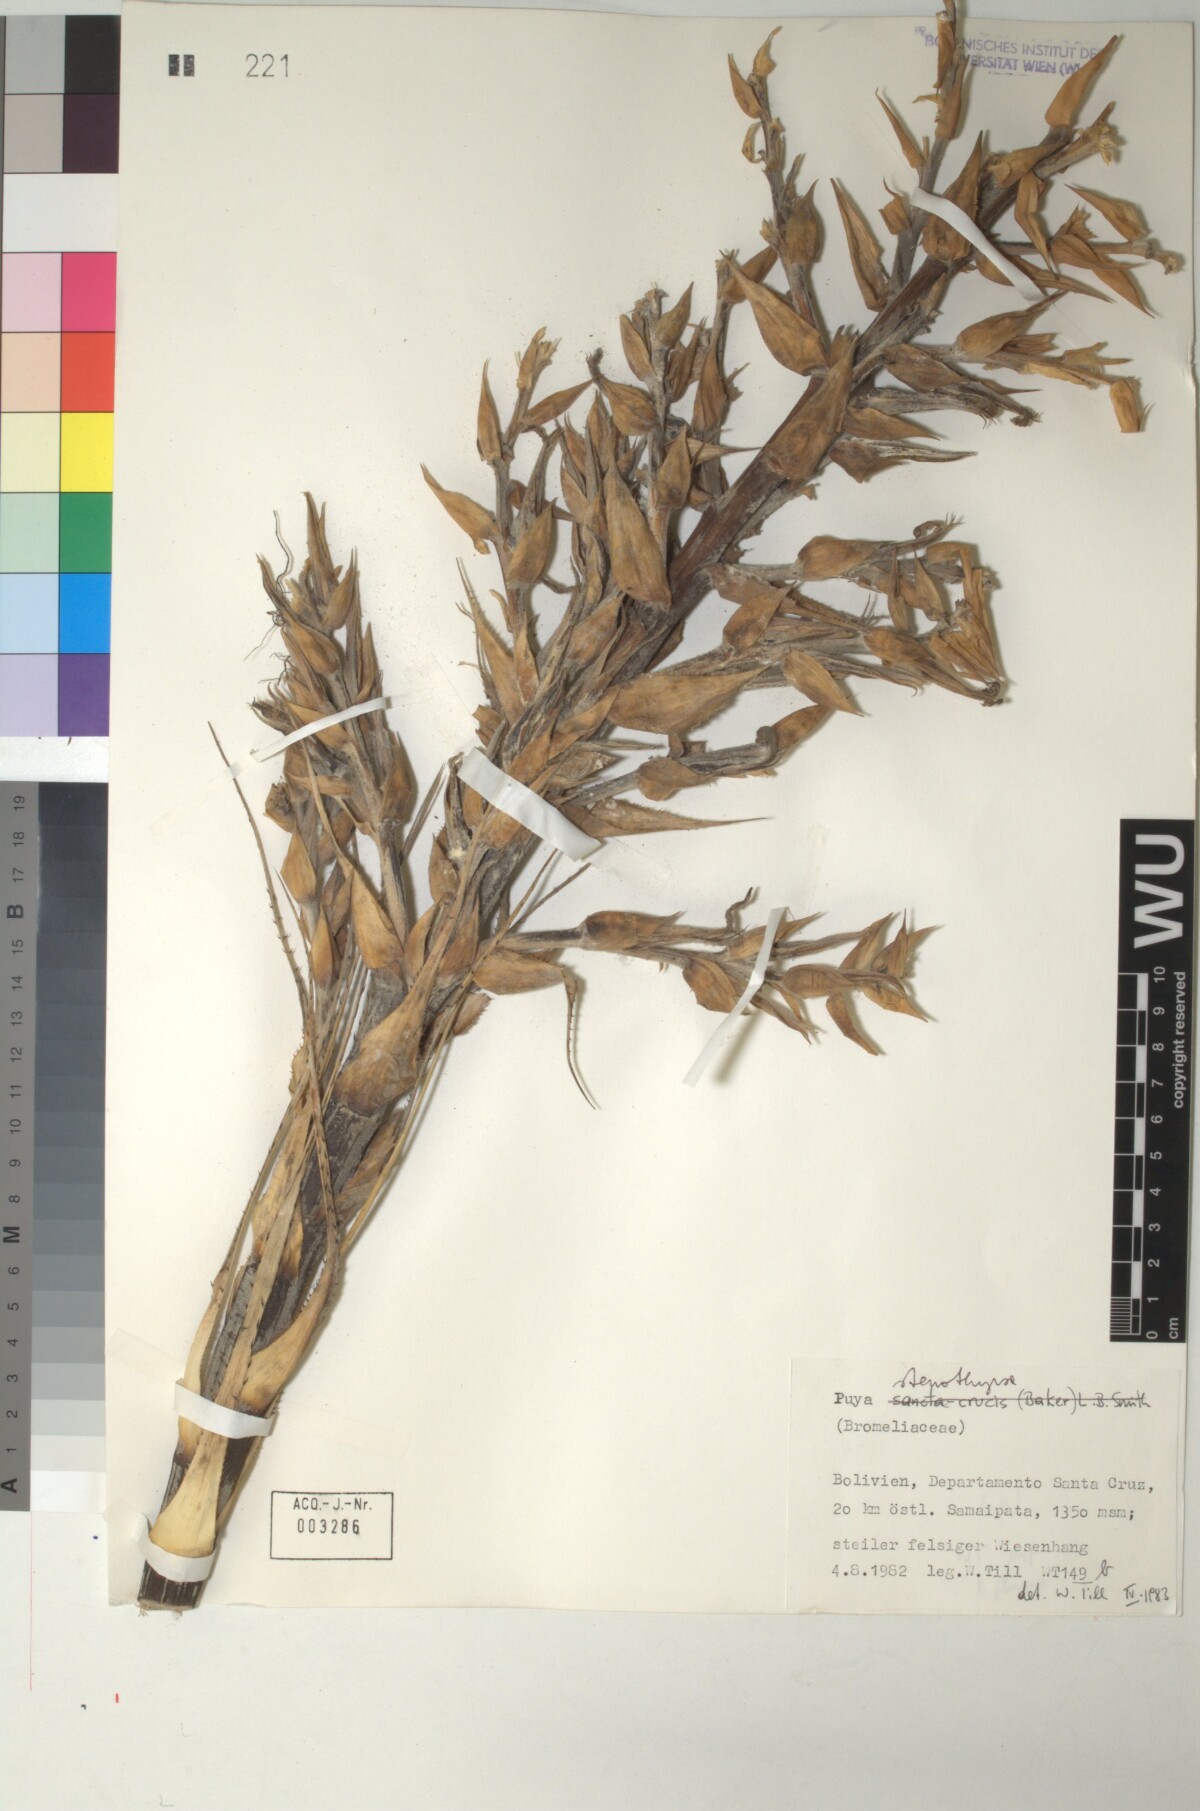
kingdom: Plantae
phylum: Tracheophyta
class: Liliopsida
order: Poales
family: Bromeliaceae
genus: Puya
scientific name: Puya stenothyrsa
